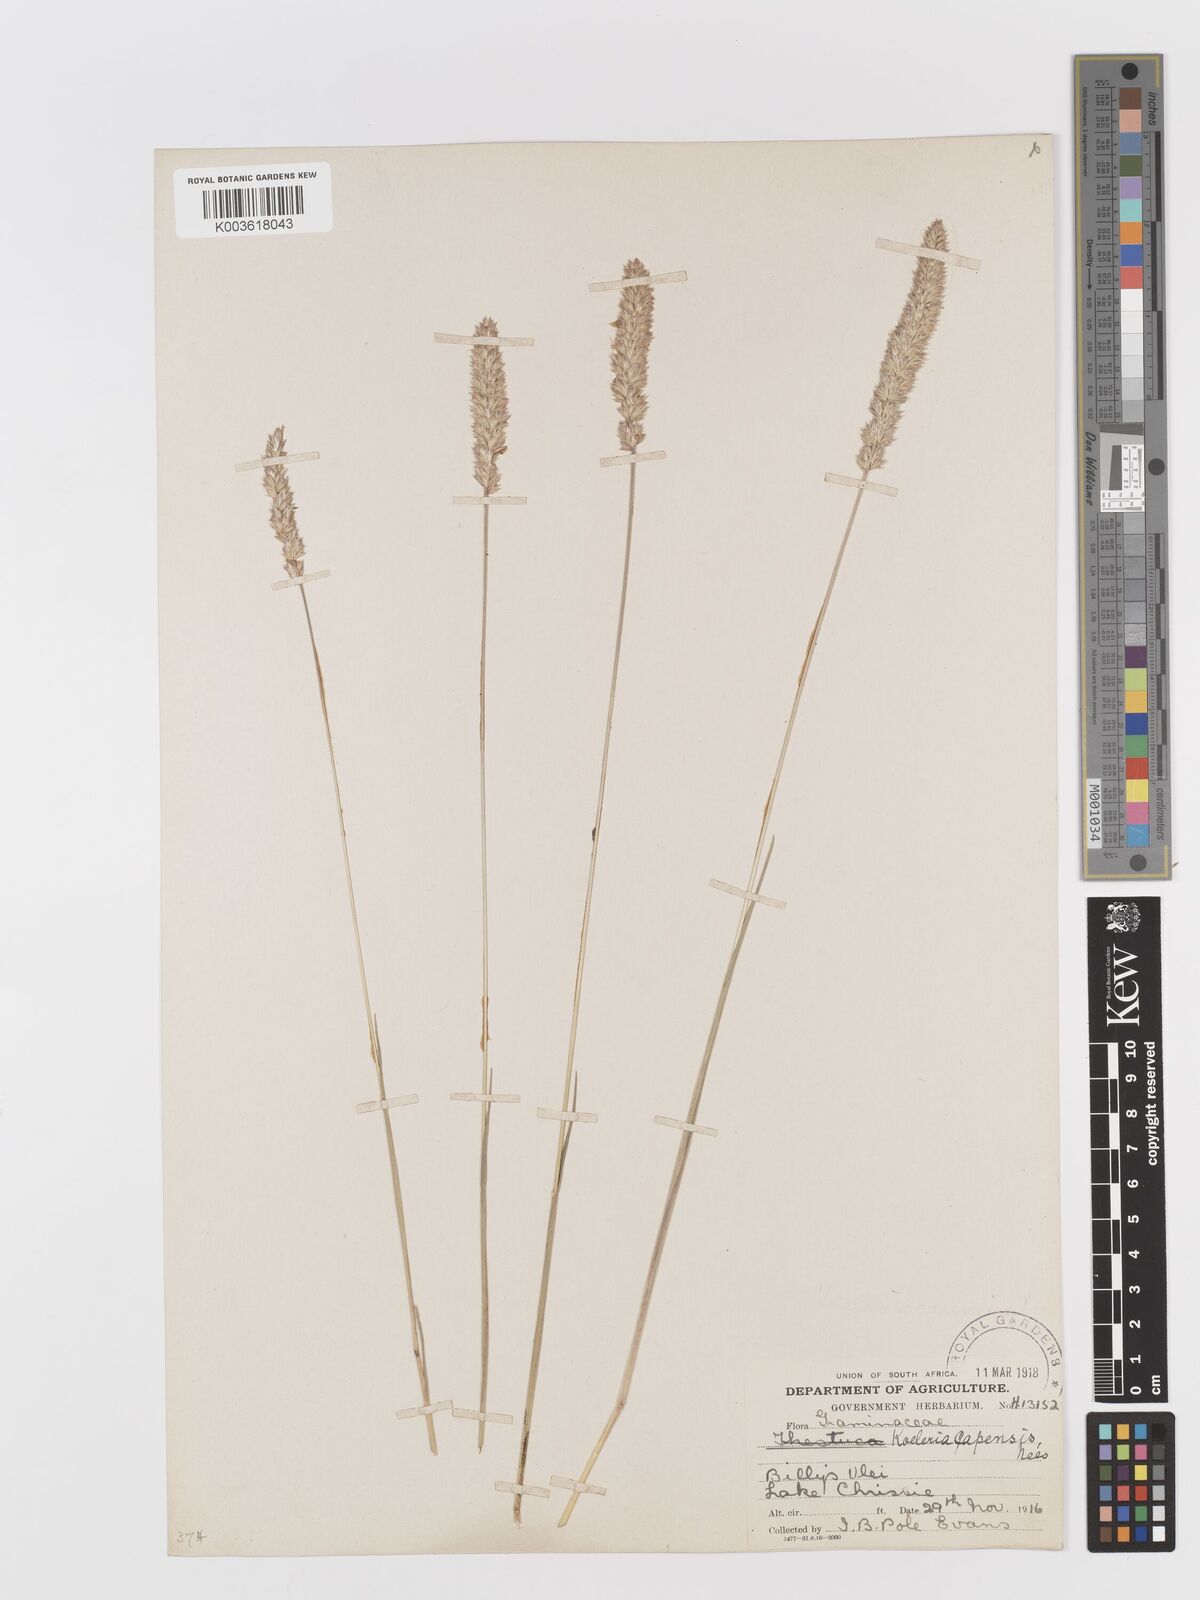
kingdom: Plantae
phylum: Tracheophyta
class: Liliopsida
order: Poales
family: Poaceae
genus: Koeleria
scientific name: Koeleria capensis
